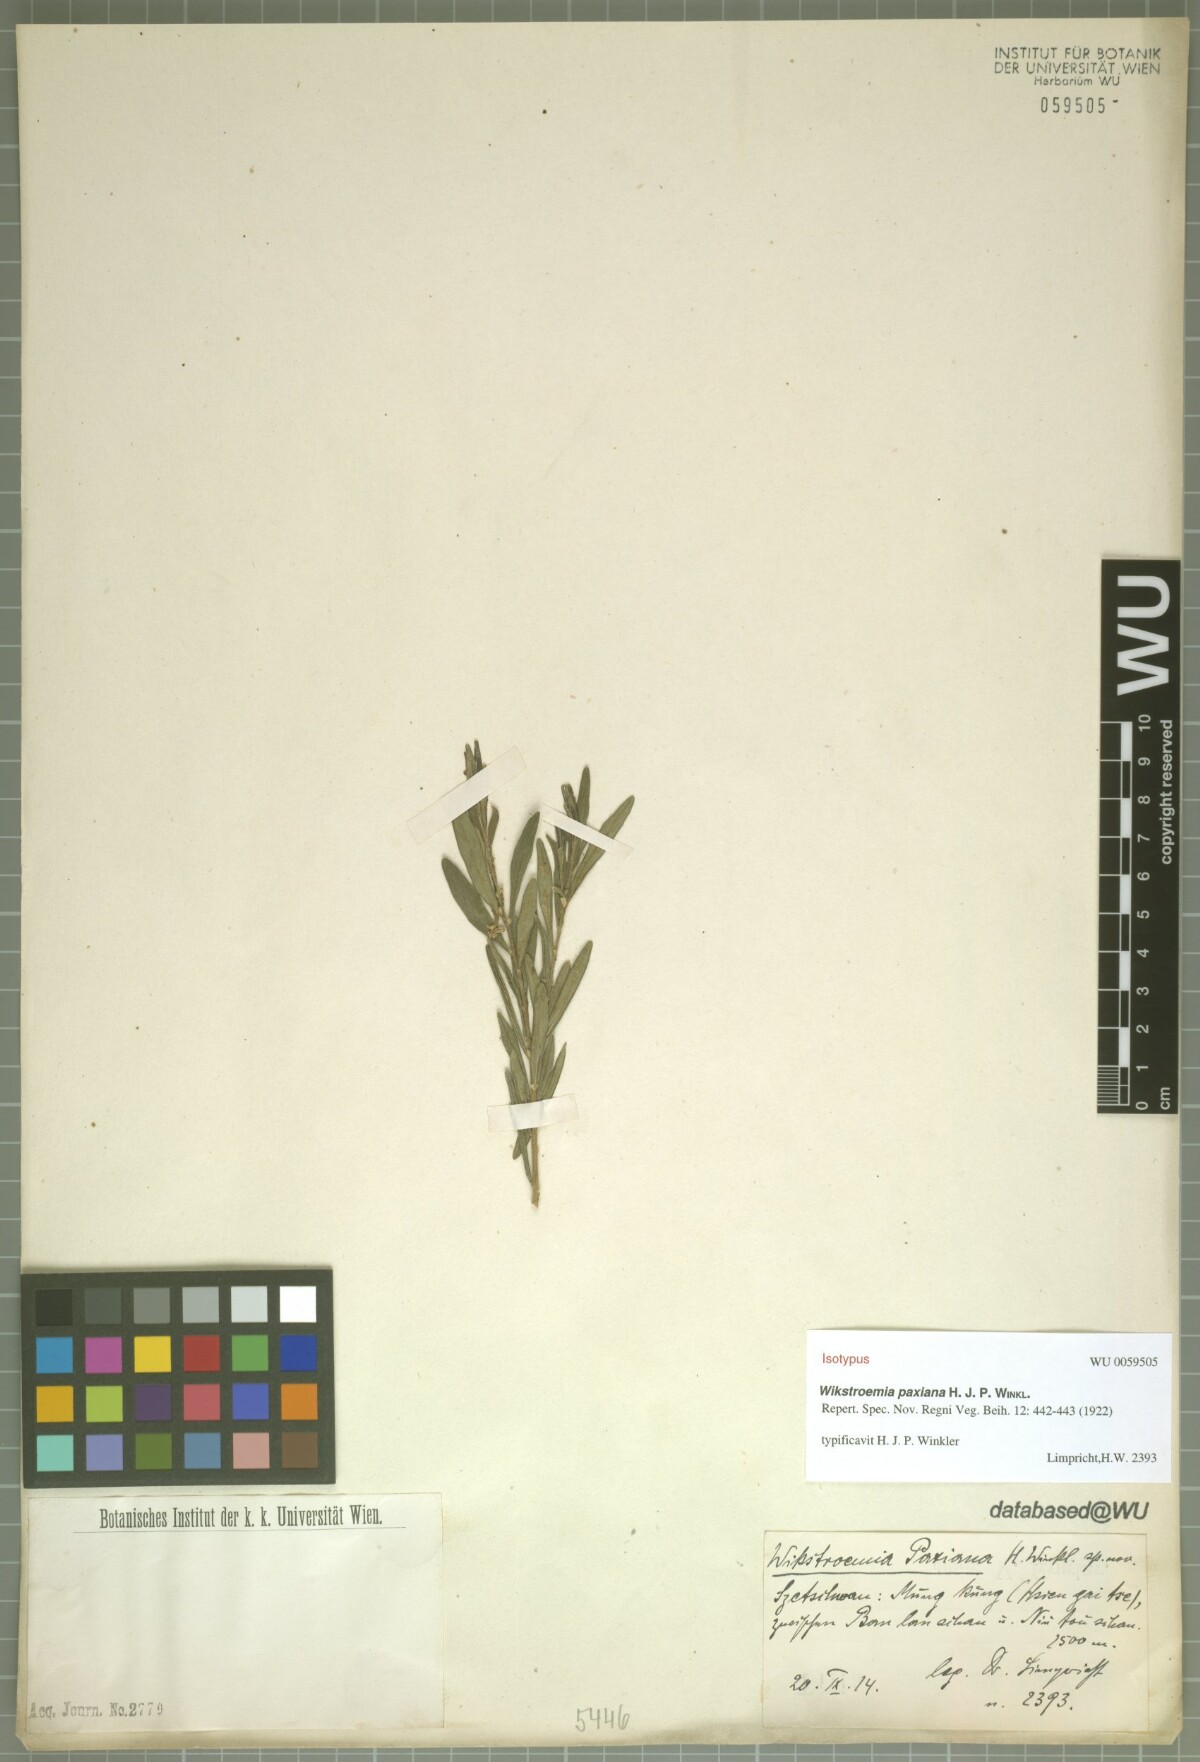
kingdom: Plantae
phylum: Tracheophyta
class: Magnoliopsida
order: Malvales
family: Thymelaeaceae
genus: Wikstroemia
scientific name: Wikstroemia paxiana
